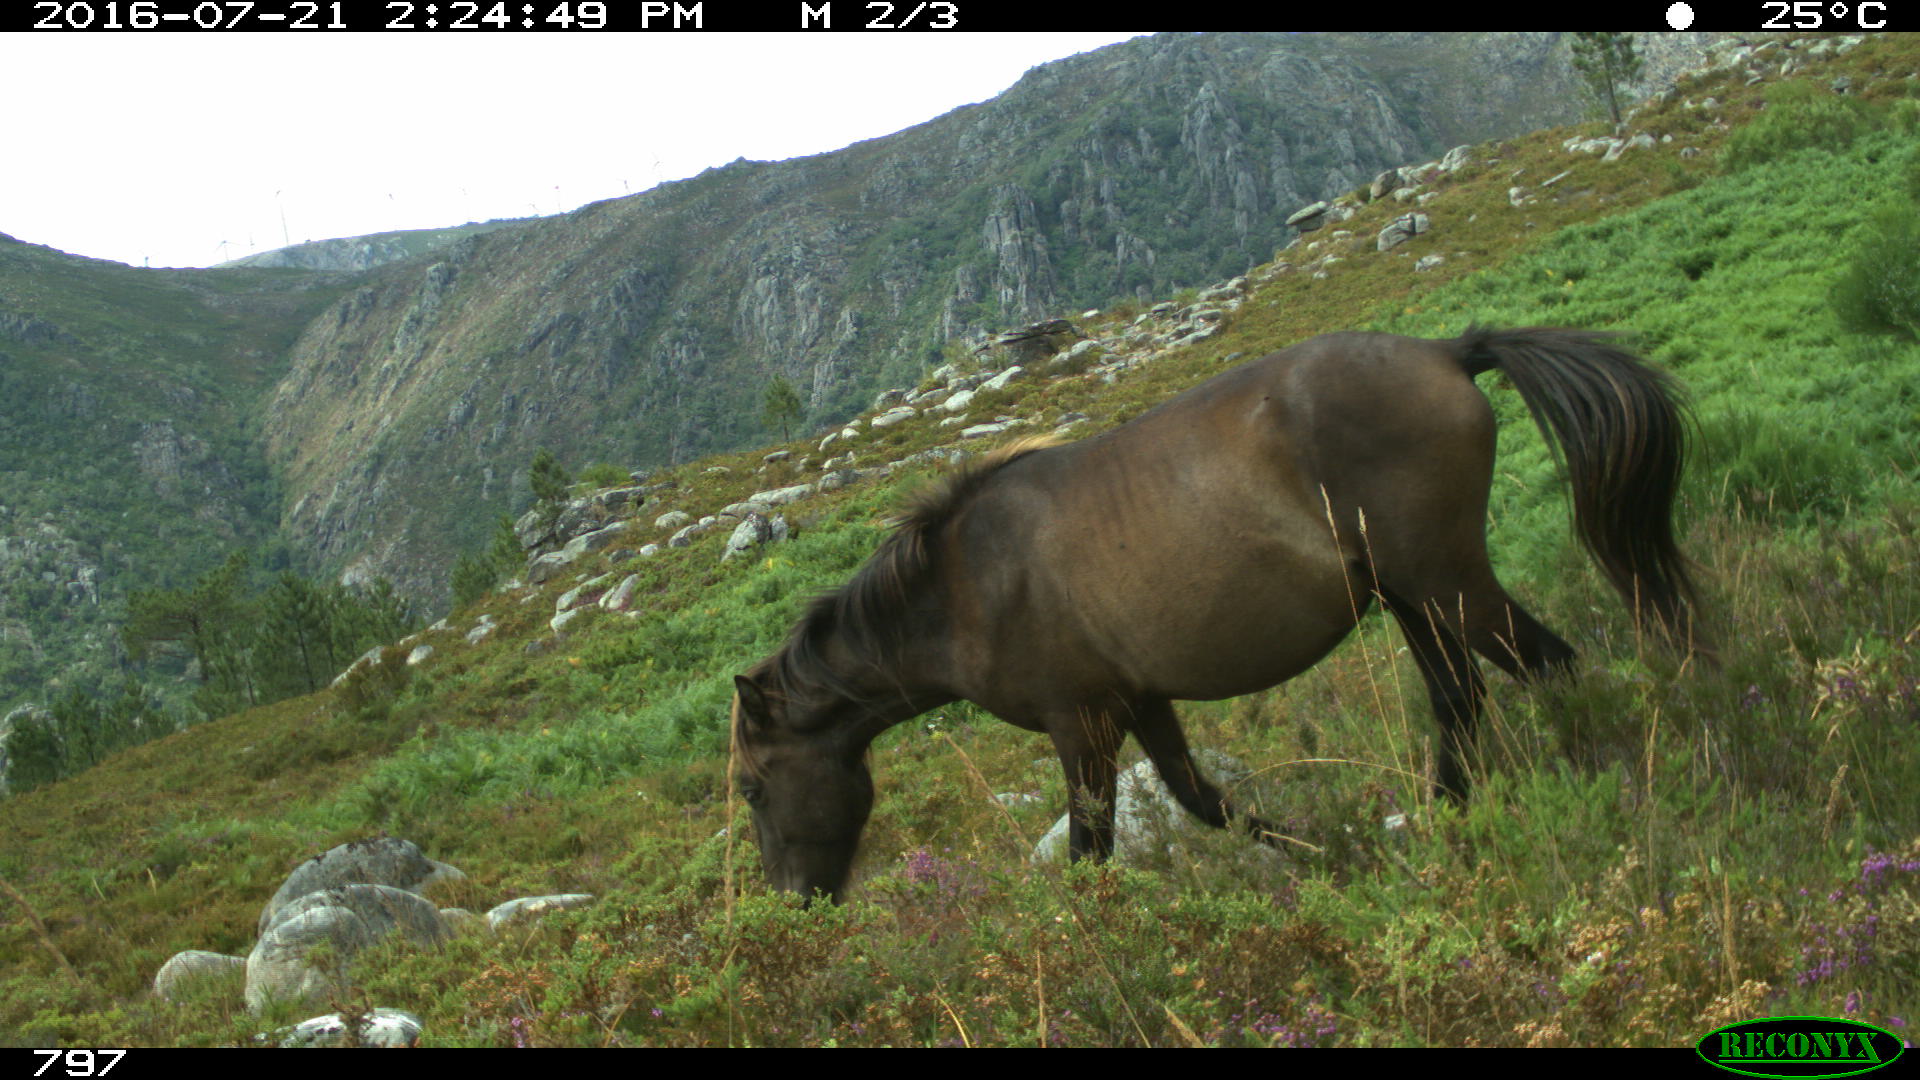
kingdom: Animalia
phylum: Chordata
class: Mammalia
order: Perissodactyla
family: Equidae
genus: Equus
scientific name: Equus caballus
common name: Horse
